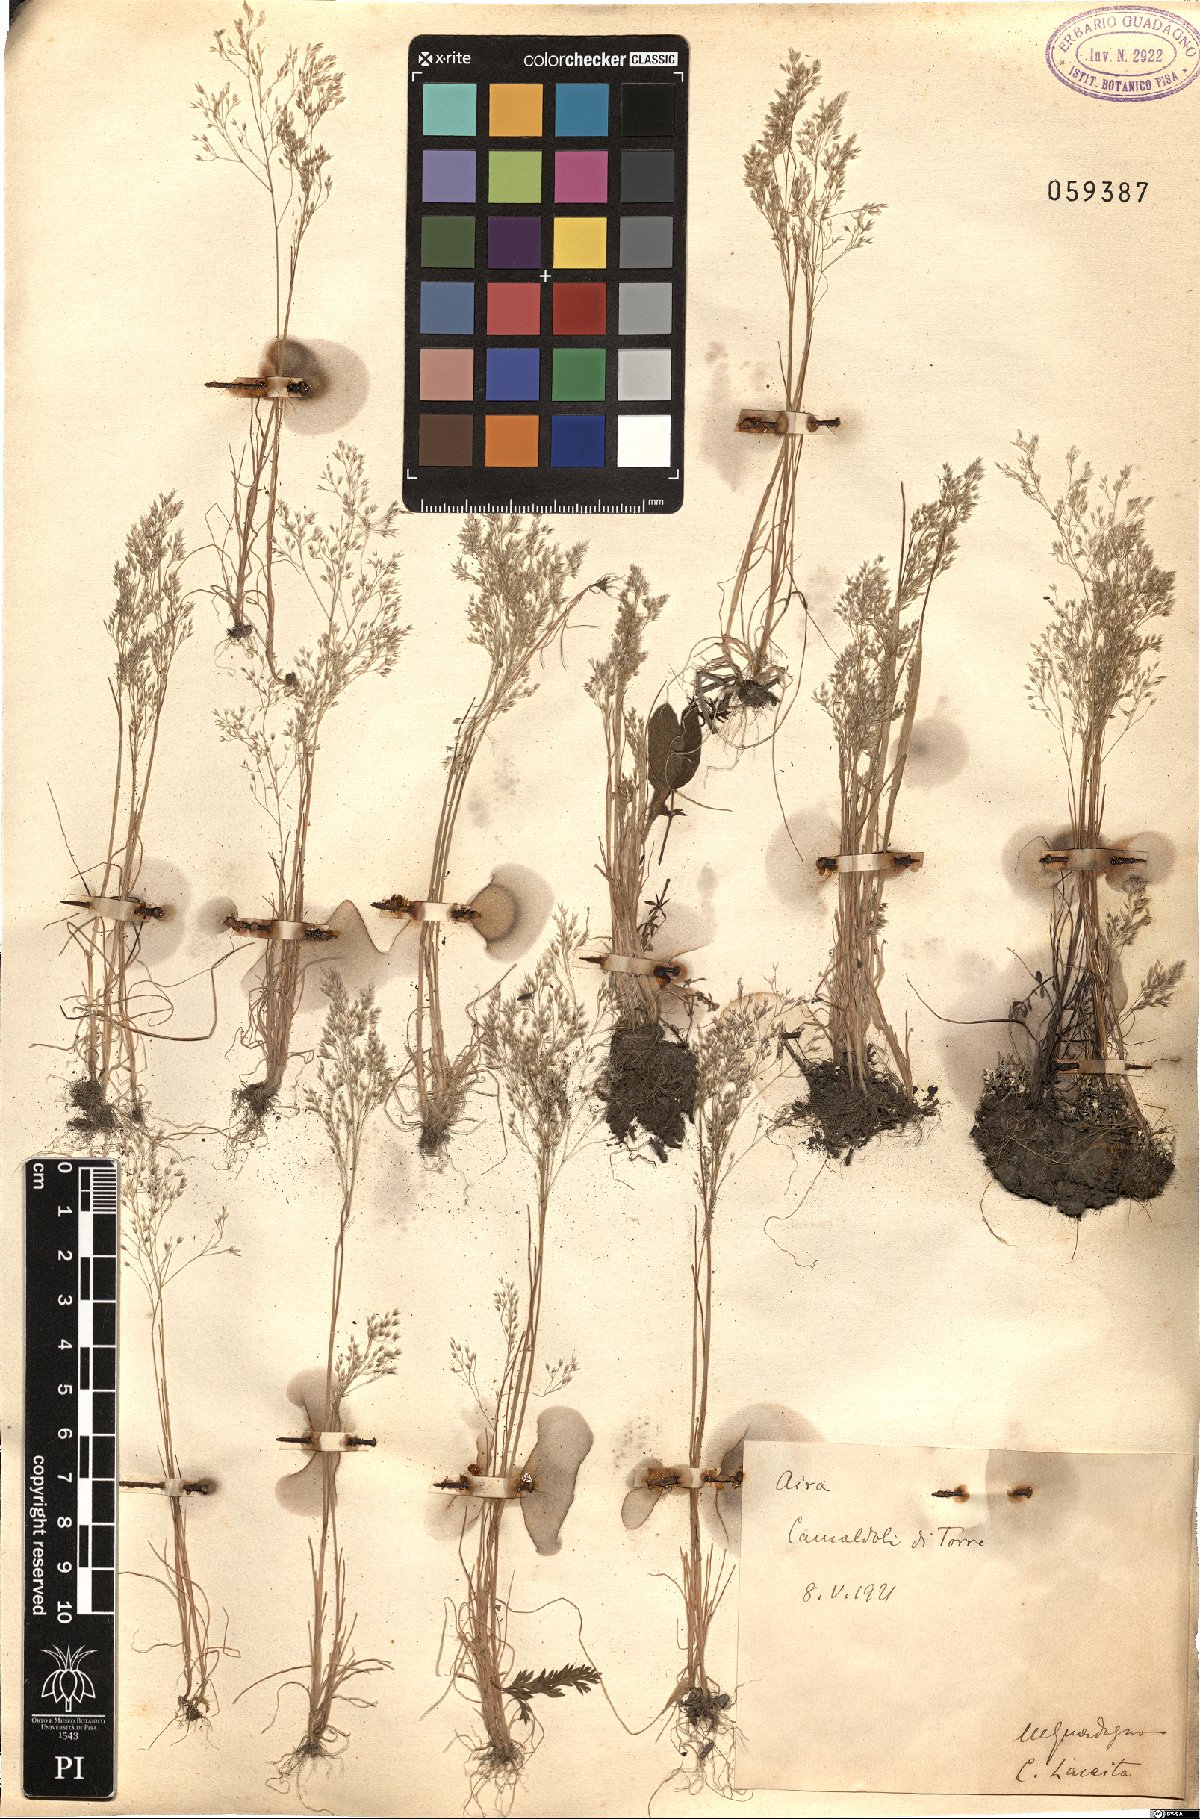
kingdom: Plantae
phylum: Tracheophyta
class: Liliopsida
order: Poales
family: Poaceae
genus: Aira
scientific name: Aira
